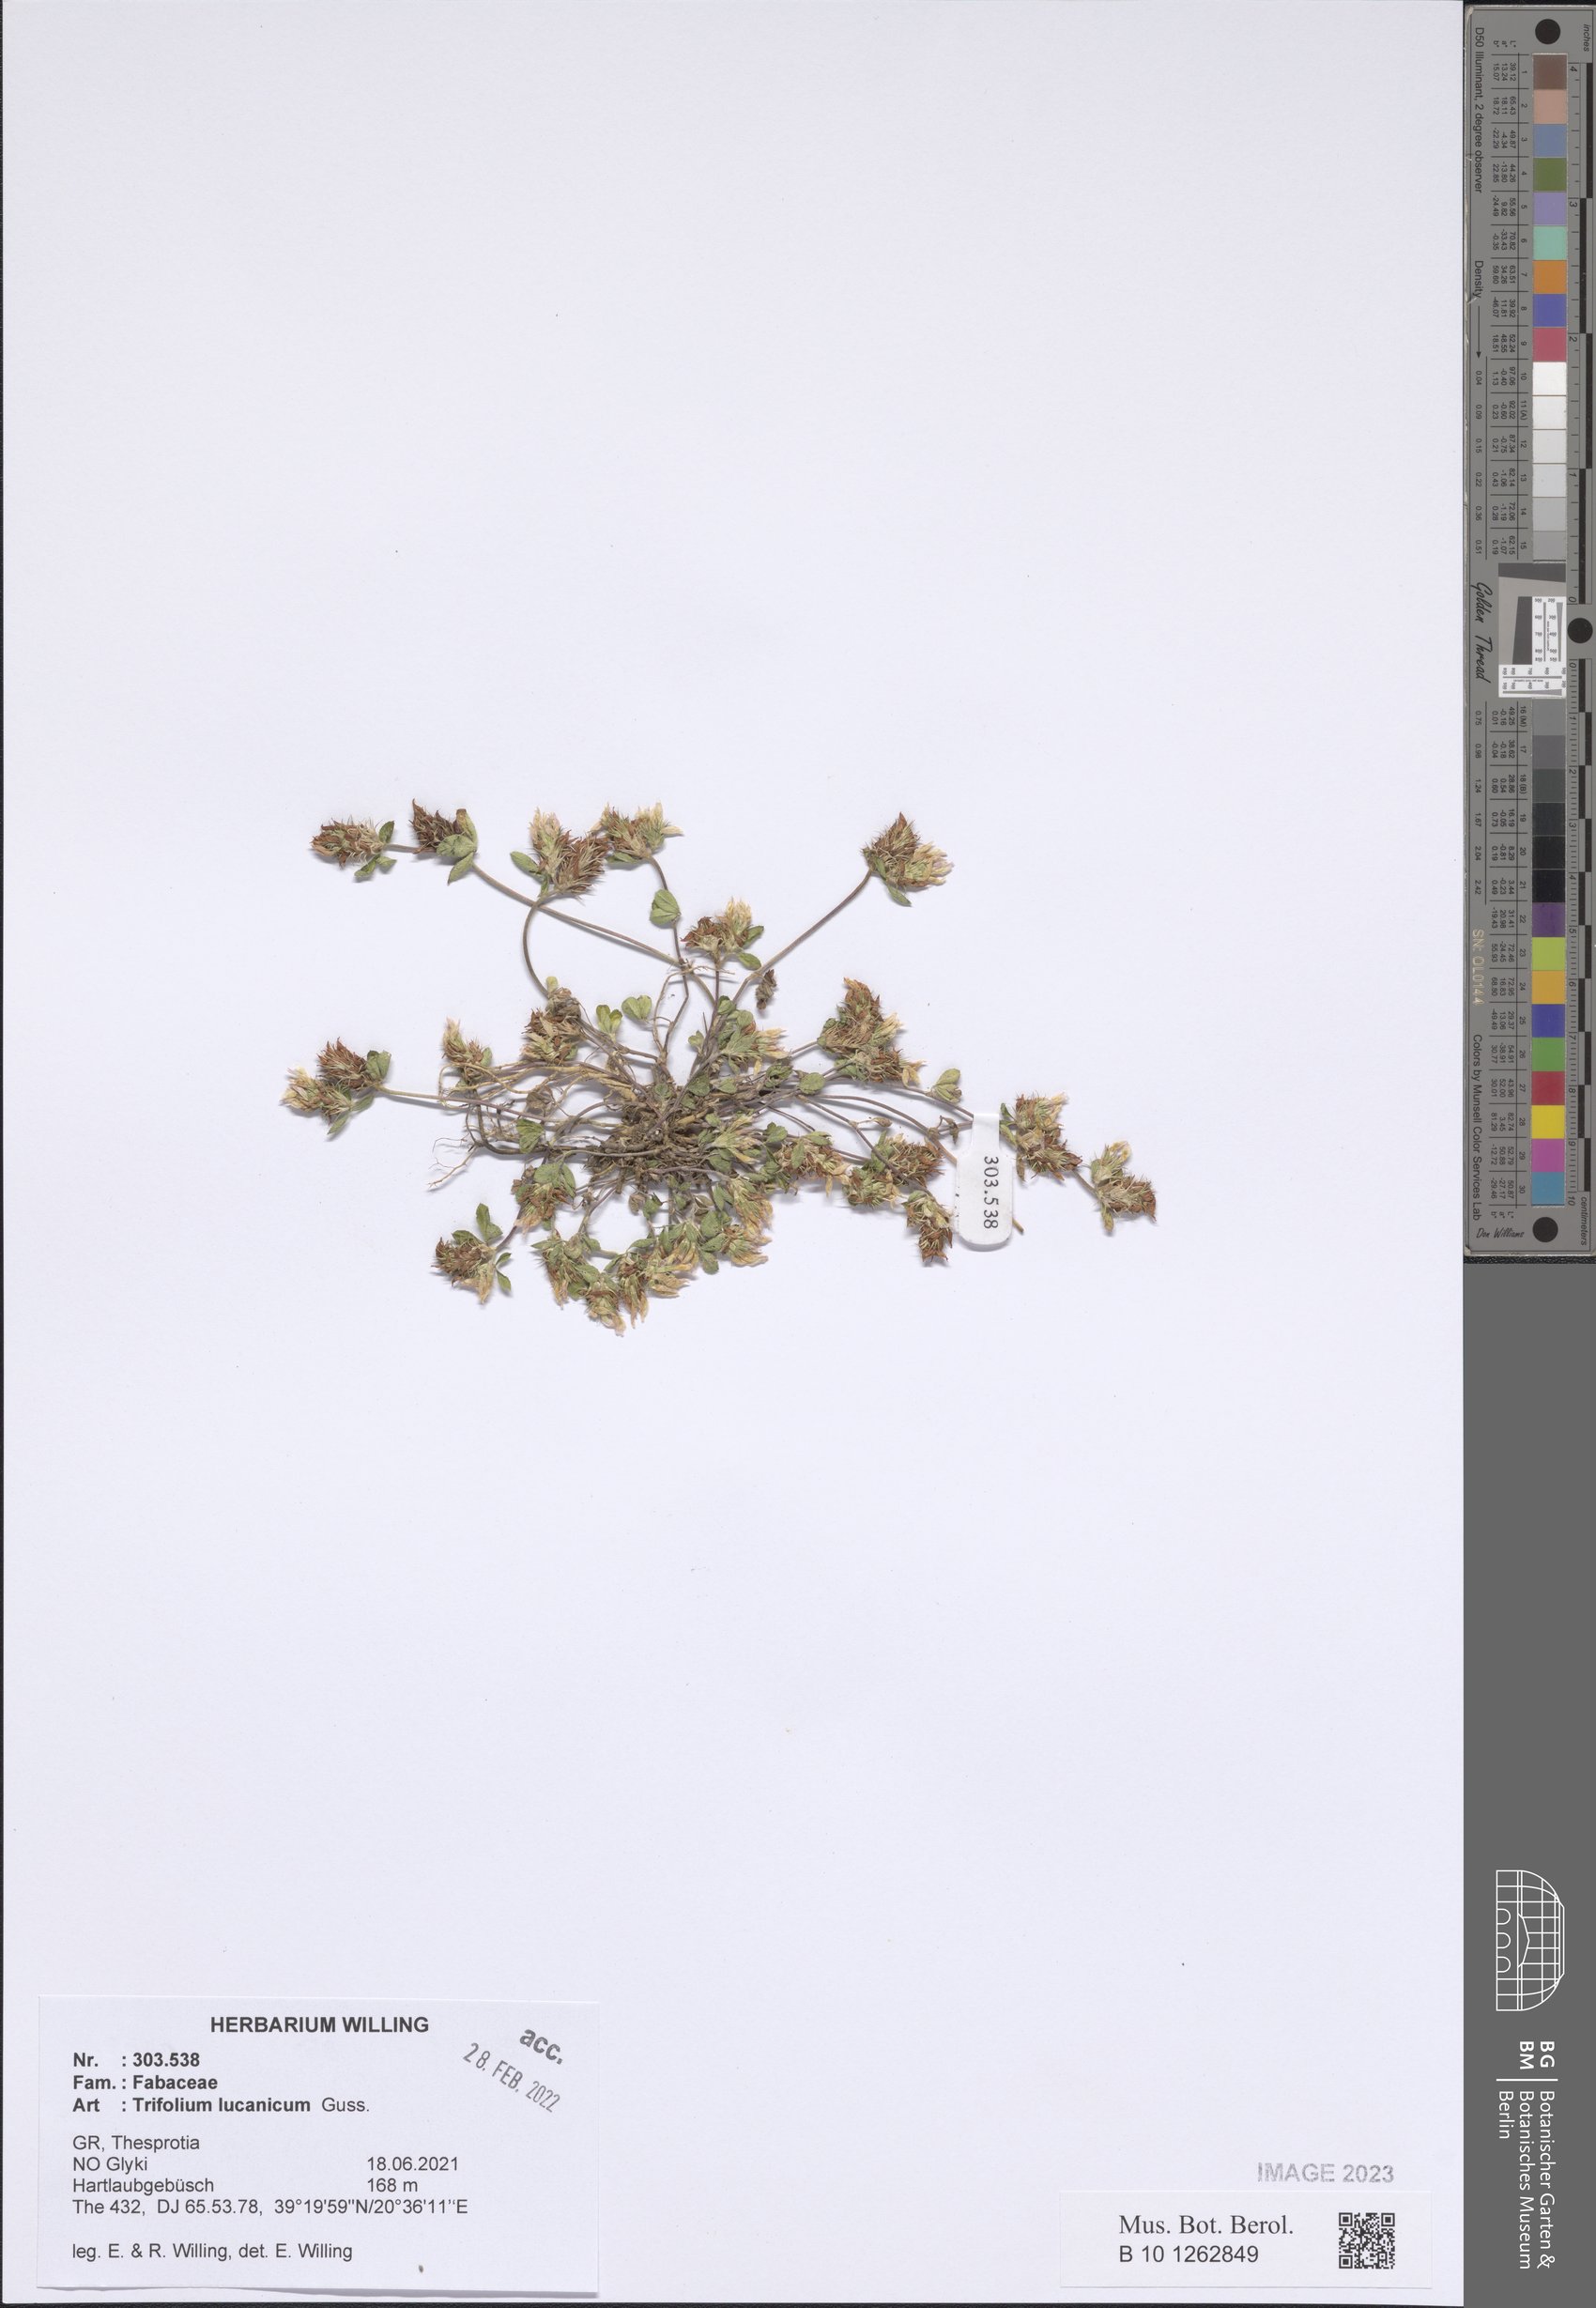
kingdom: Plantae
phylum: Tracheophyta
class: Magnoliopsida
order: Fabales
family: Fabaceae
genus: Trifolium
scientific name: Trifolium lucanicum
